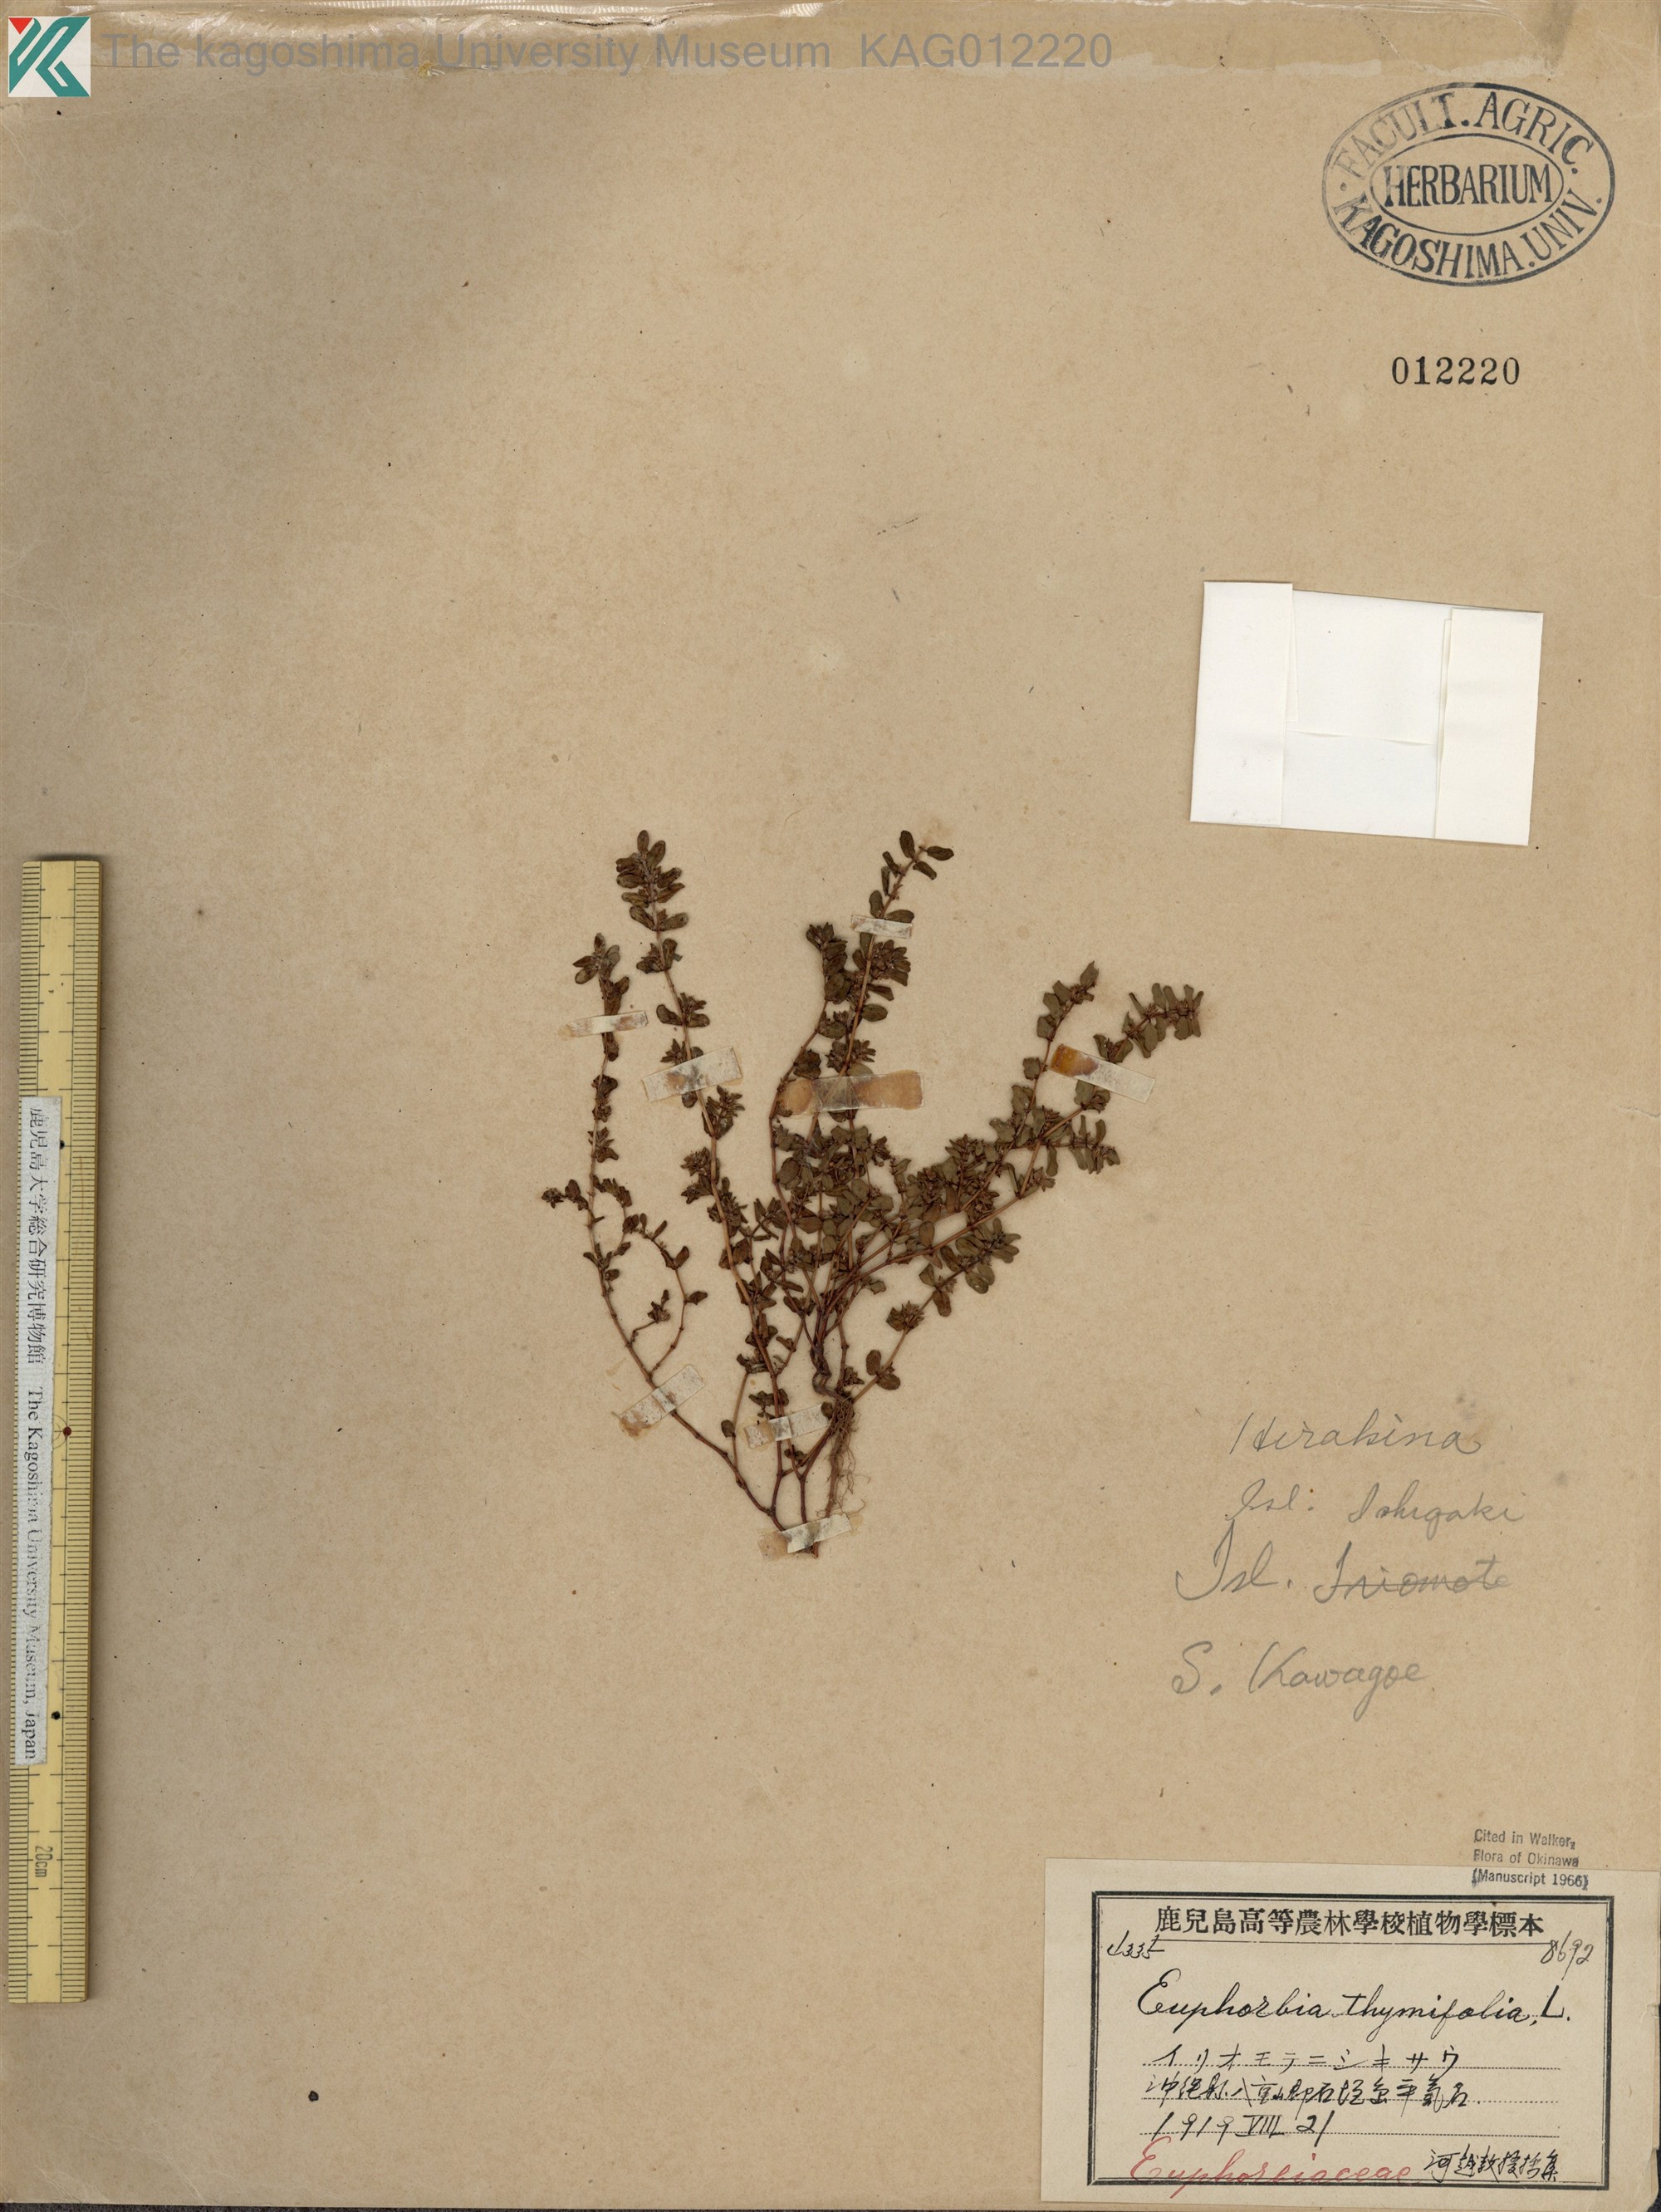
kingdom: Plantae
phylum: Tracheophyta
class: Magnoliopsida
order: Malpighiales
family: Euphorbiaceae
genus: Euphorbia
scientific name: Euphorbia thymifolia
